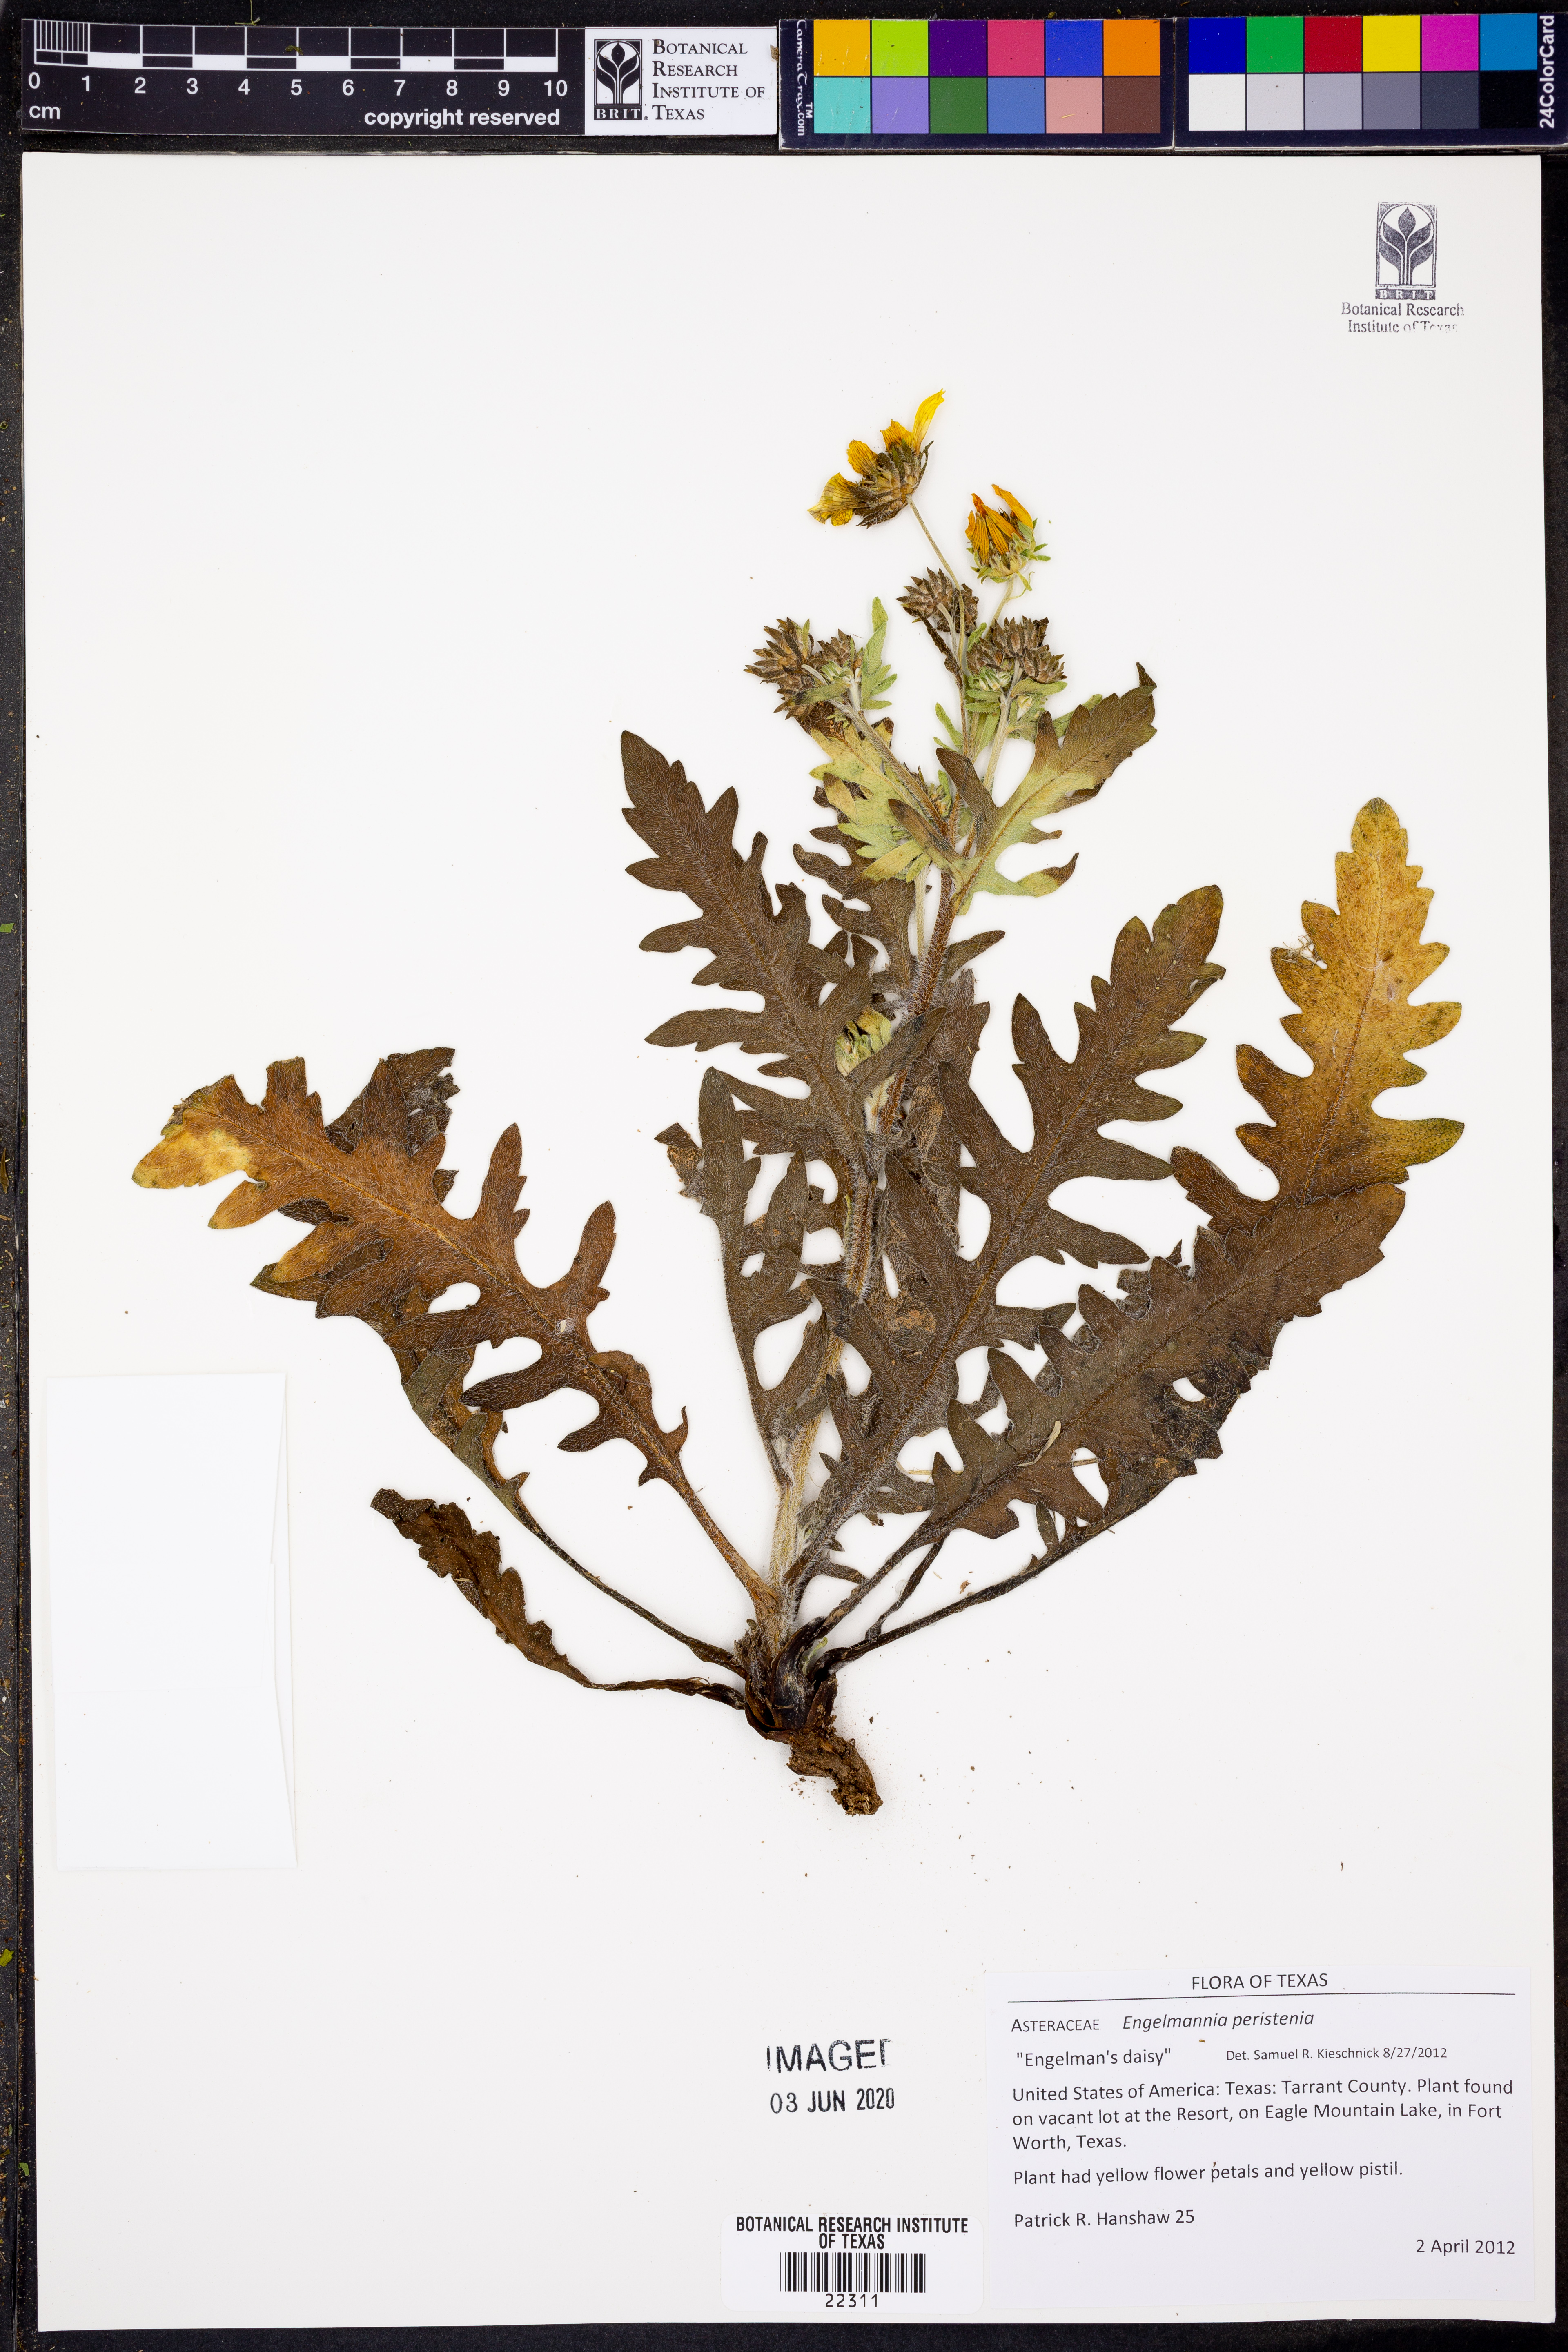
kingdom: Plantae
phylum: Tracheophyta
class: Magnoliopsida
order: Asterales
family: Asteraceae
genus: Engelmannia
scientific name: Engelmannia peristenia
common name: Engelmann's daisy
